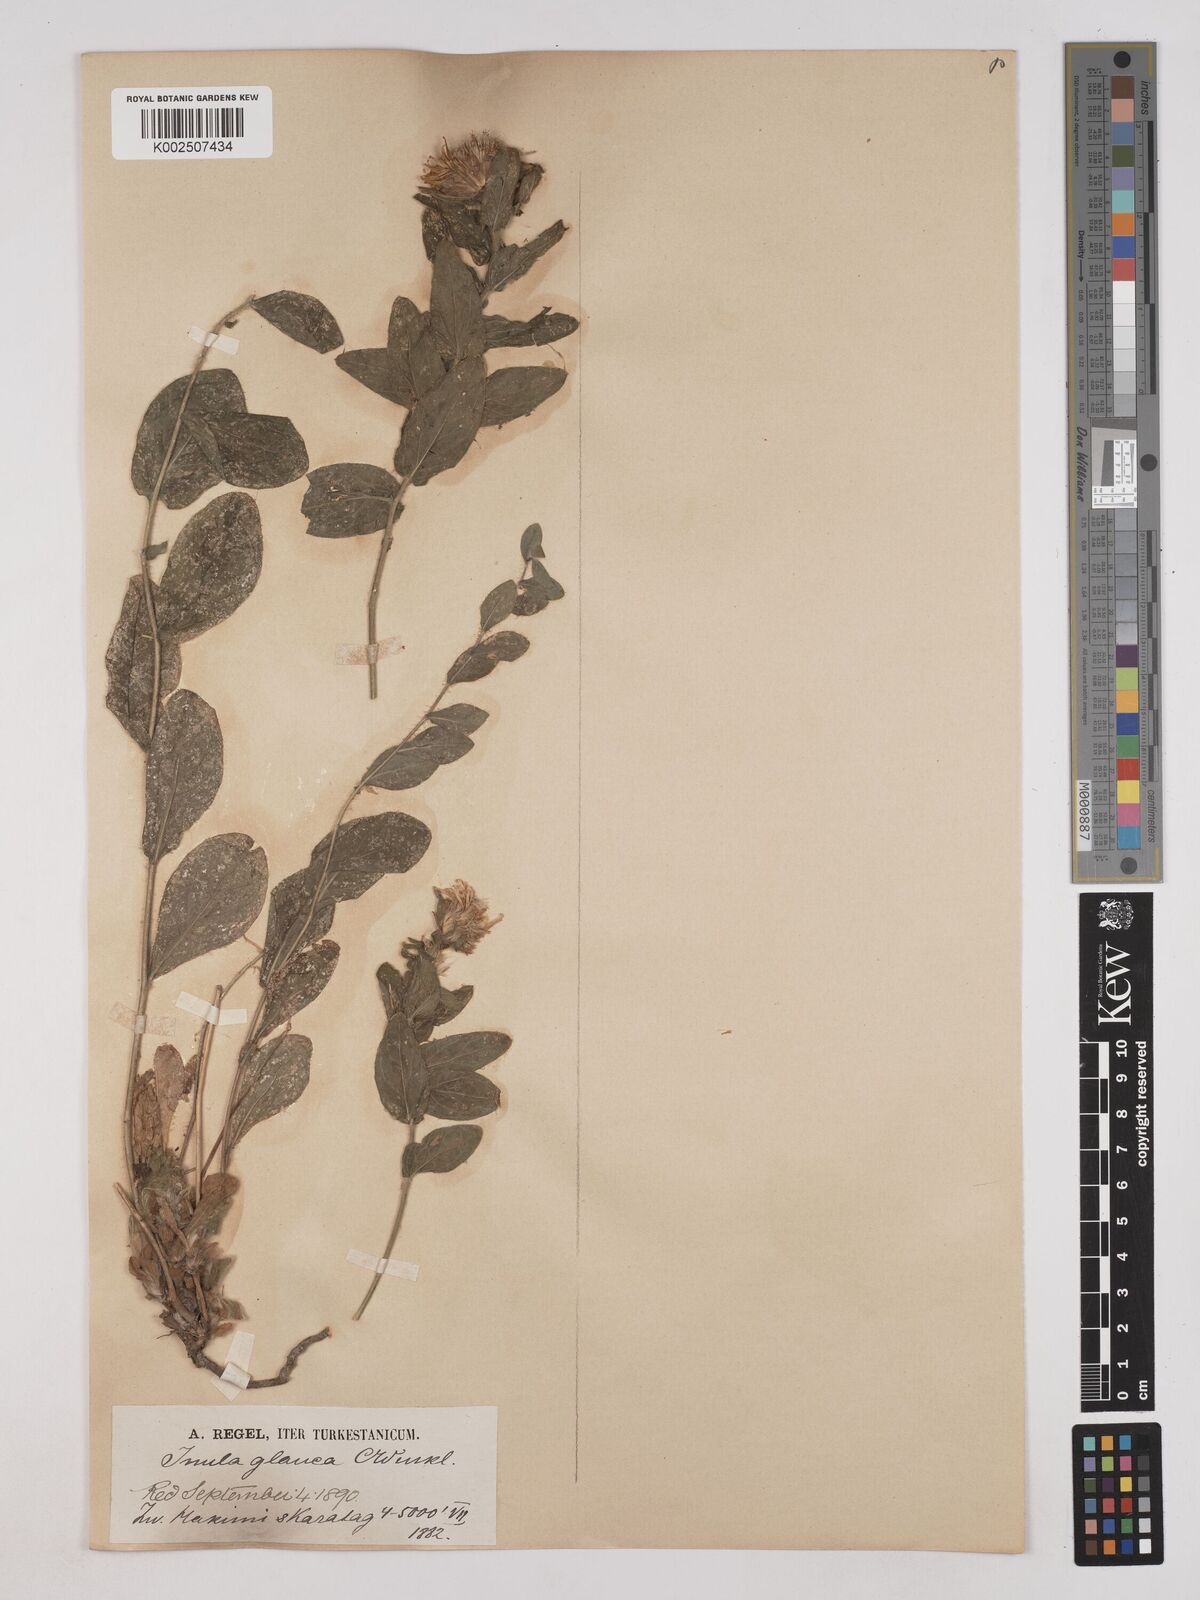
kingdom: Plantae
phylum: Tracheophyta
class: Magnoliopsida
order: Asterales
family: Asteraceae
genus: Inula
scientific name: Inula glauca
